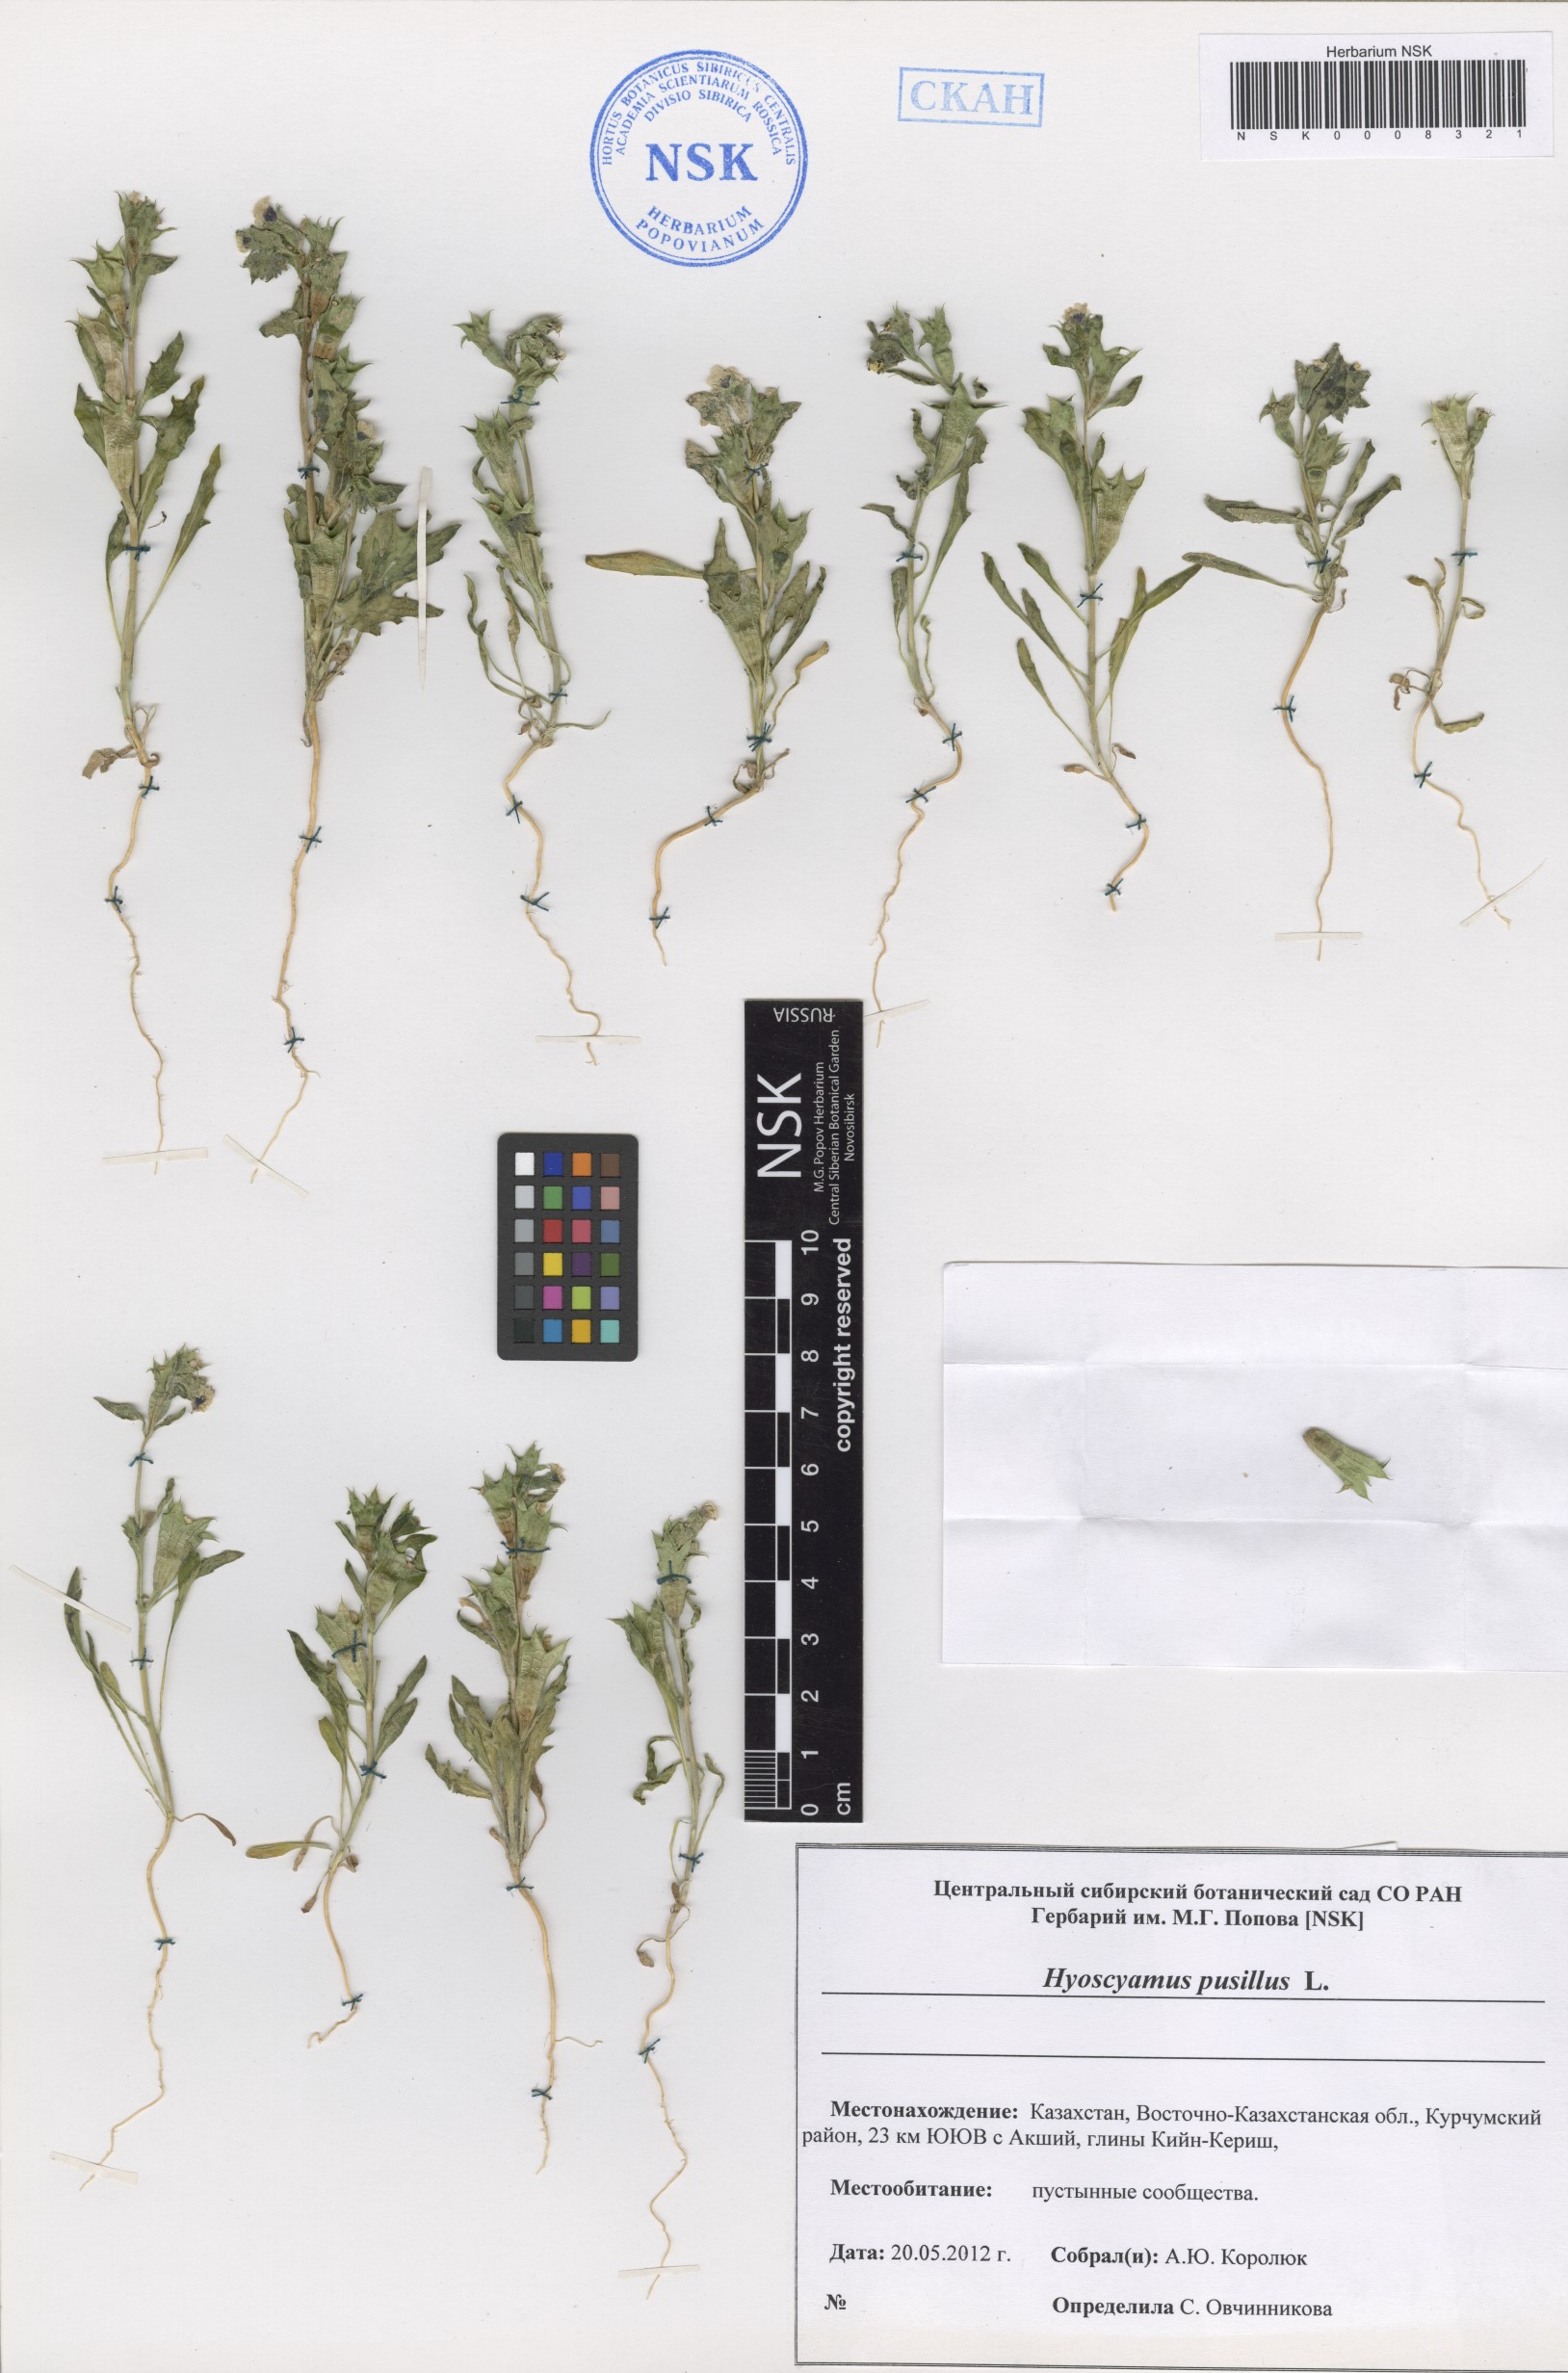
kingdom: Plantae
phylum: Tracheophyta
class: Magnoliopsida
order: Solanales
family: Solanaceae
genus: Hyoscyamus
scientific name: Hyoscyamus pusillus
